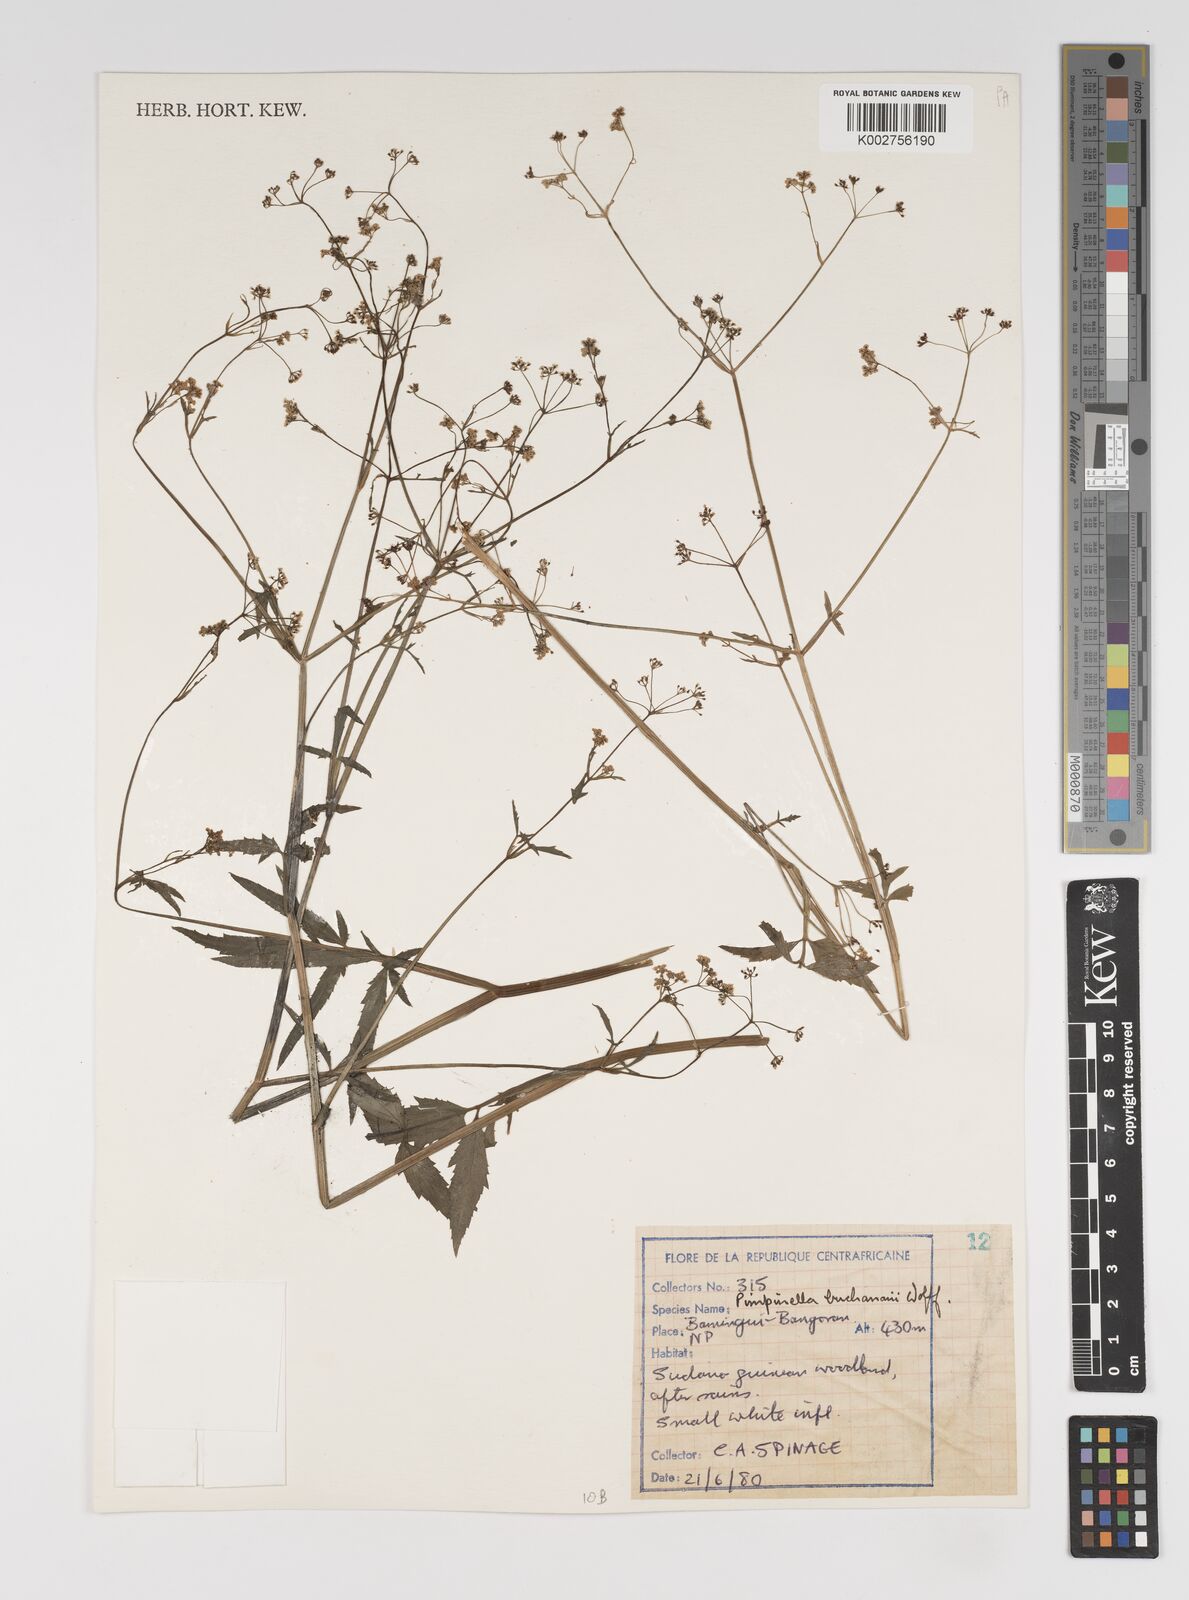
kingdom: Plantae
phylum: Tracheophyta
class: Magnoliopsida
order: Apiales
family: Apiaceae
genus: Pimpinella
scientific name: Pimpinella buchananii
